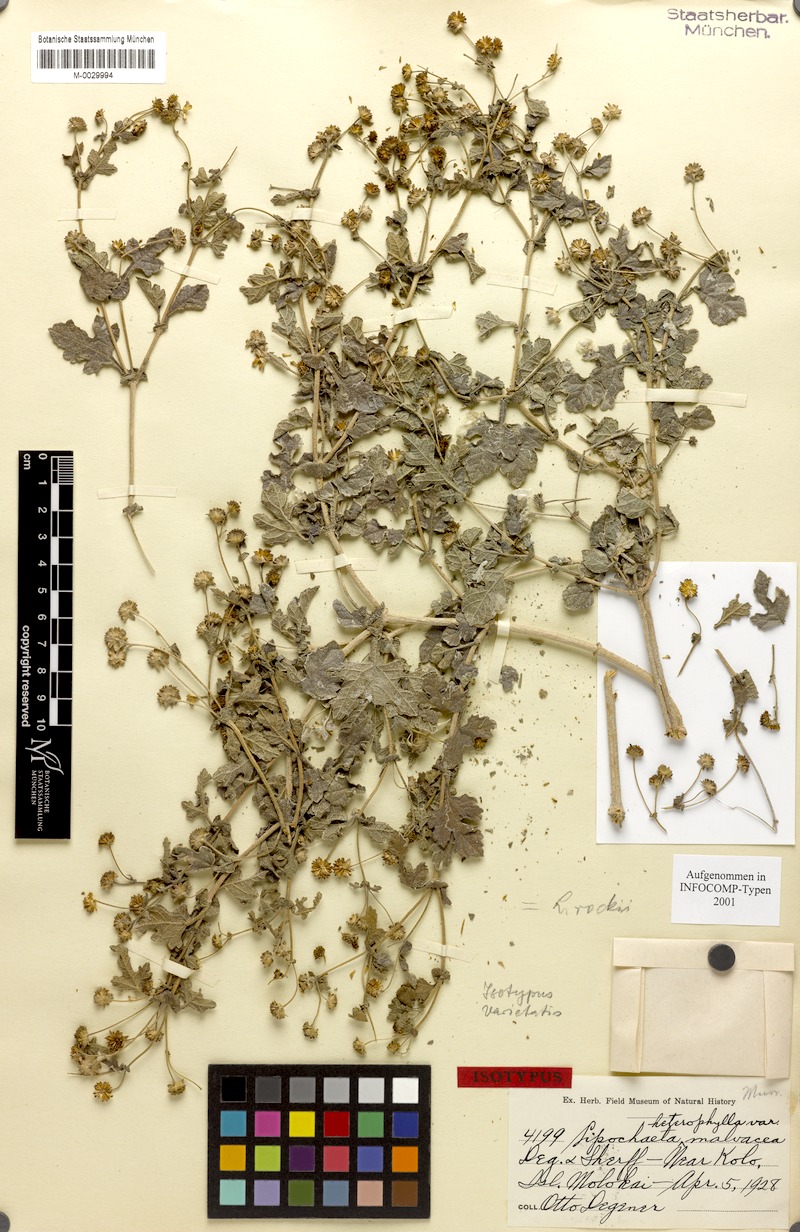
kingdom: Plantae
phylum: Tracheophyta
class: Magnoliopsida
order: Asterales
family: Asteraceae
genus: Lipochaeta
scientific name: Lipochaeta rockii
